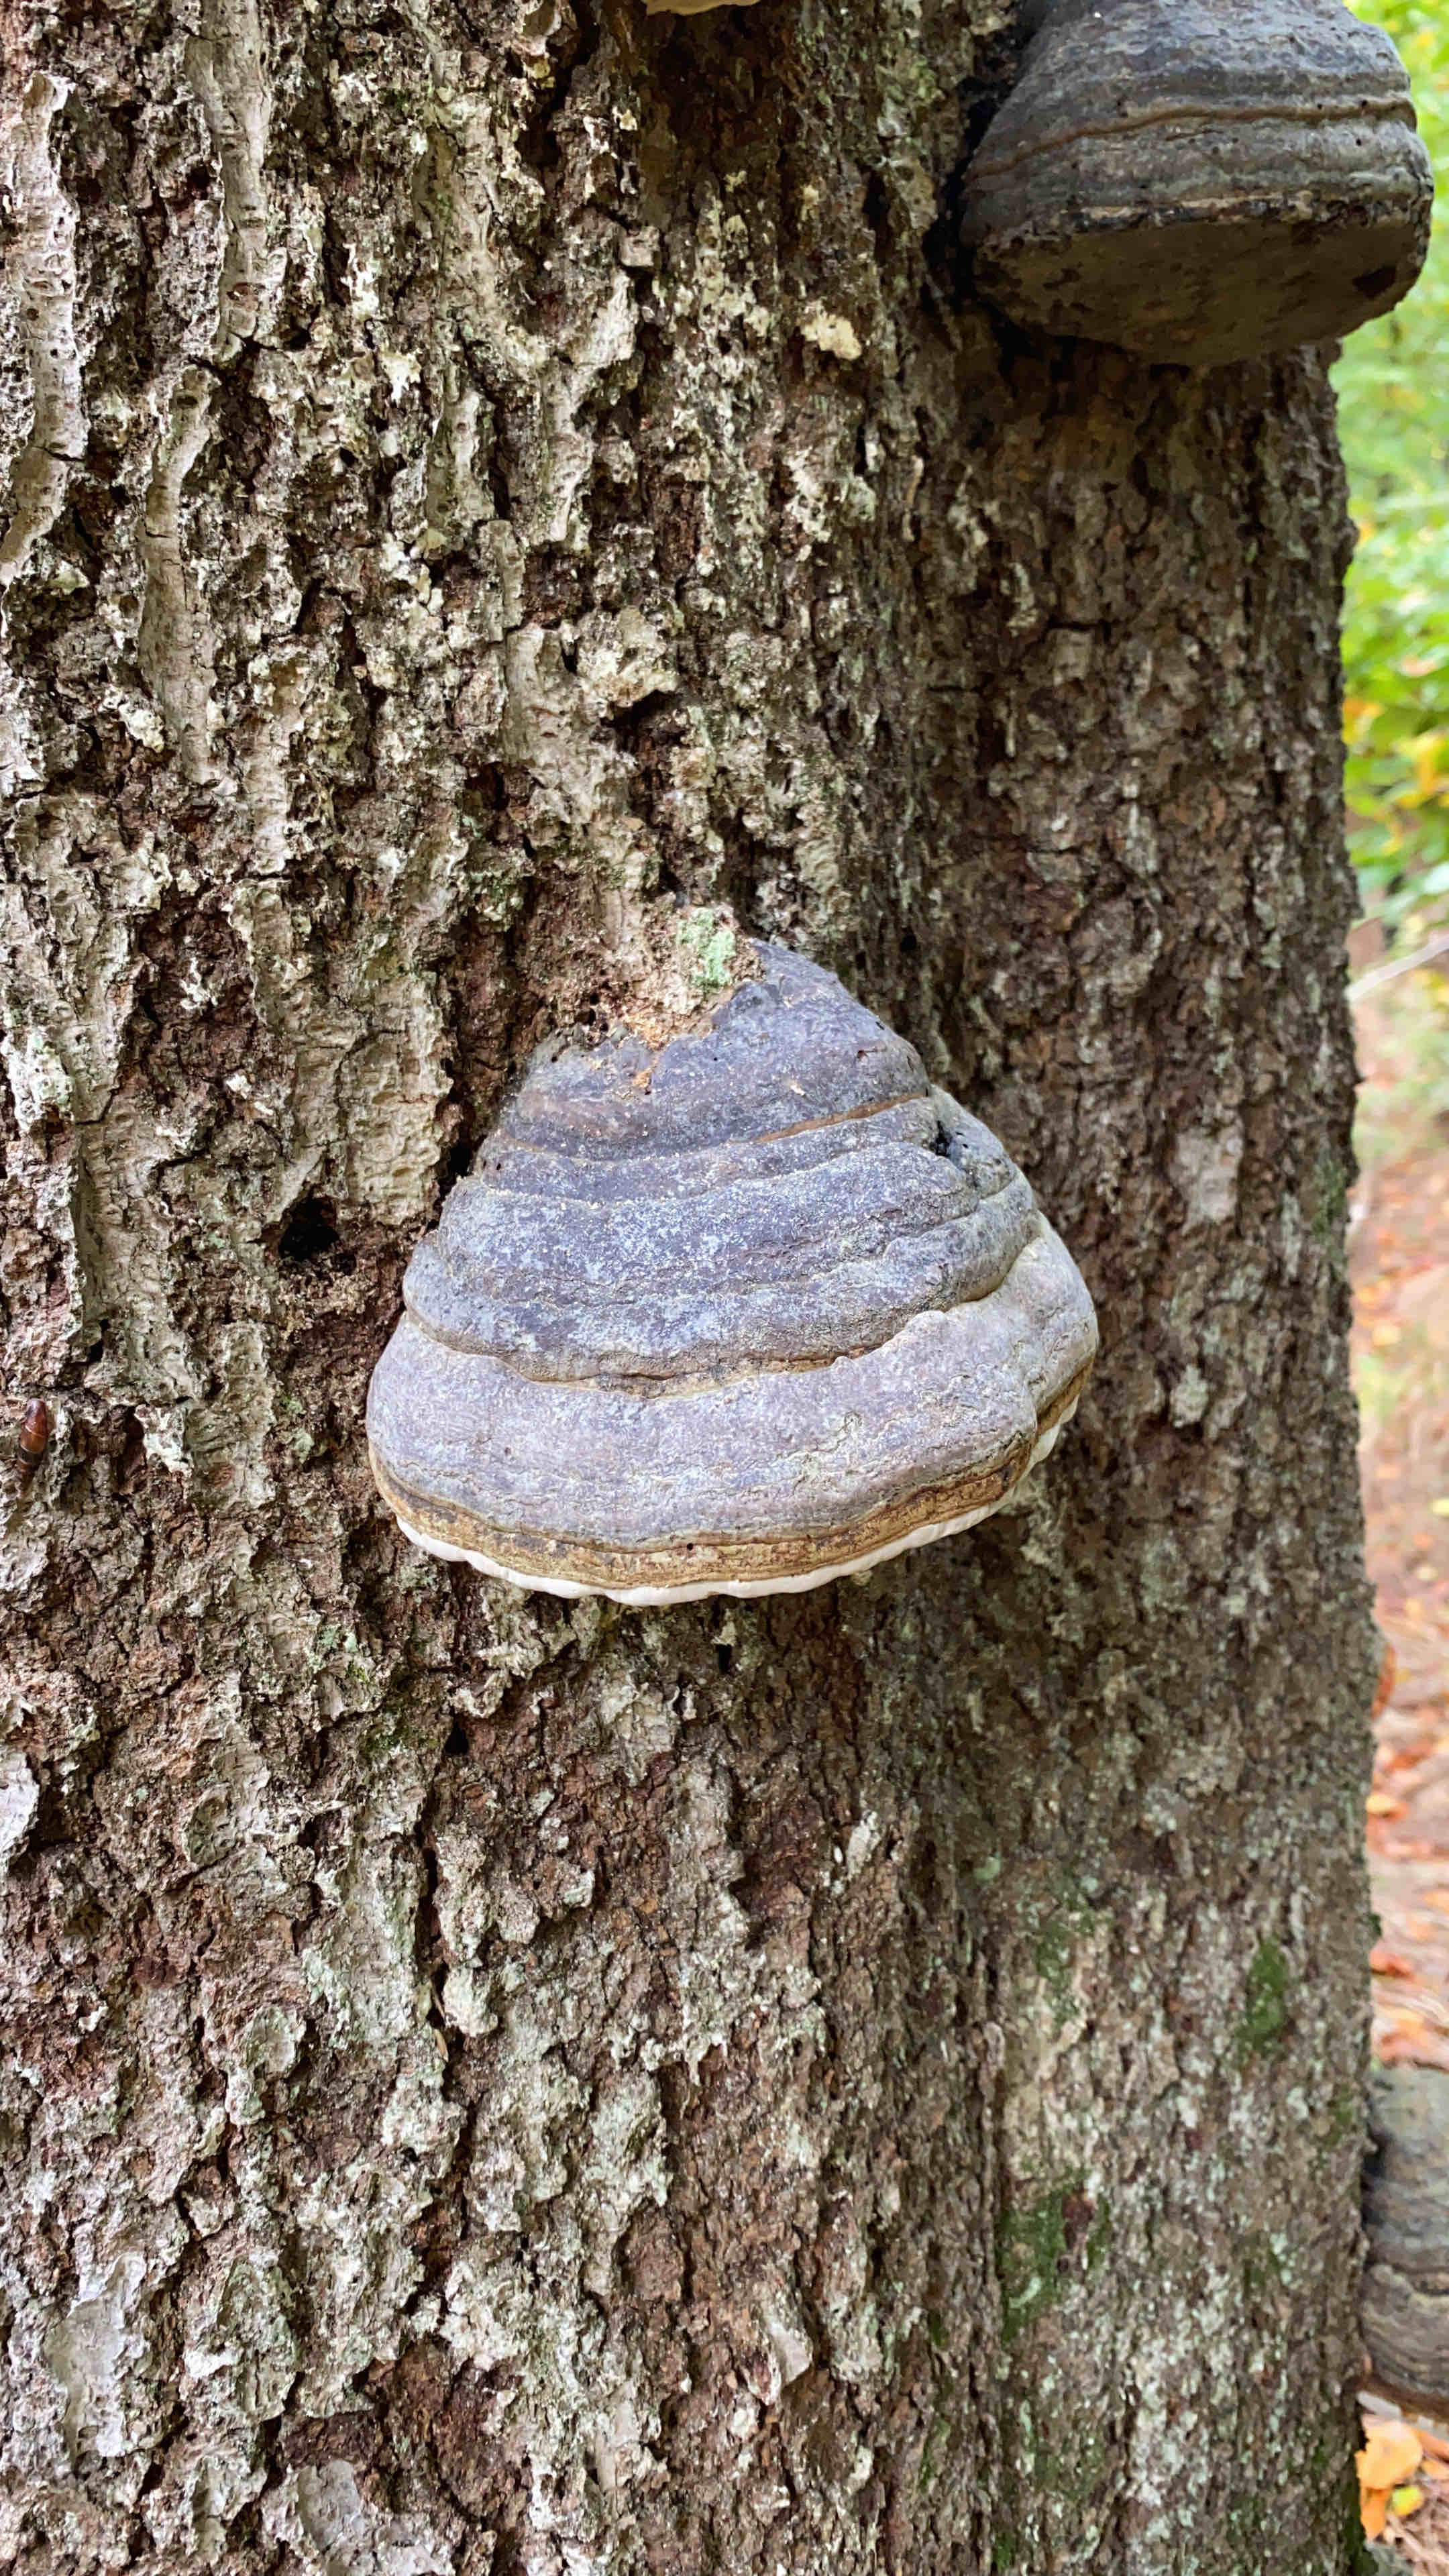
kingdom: Fungi
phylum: Basidiomycota
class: Agaricomycetes
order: Polyporales
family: Polyporaceae
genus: Fomes
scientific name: Fomes fomentarius
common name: tøndersvamp
